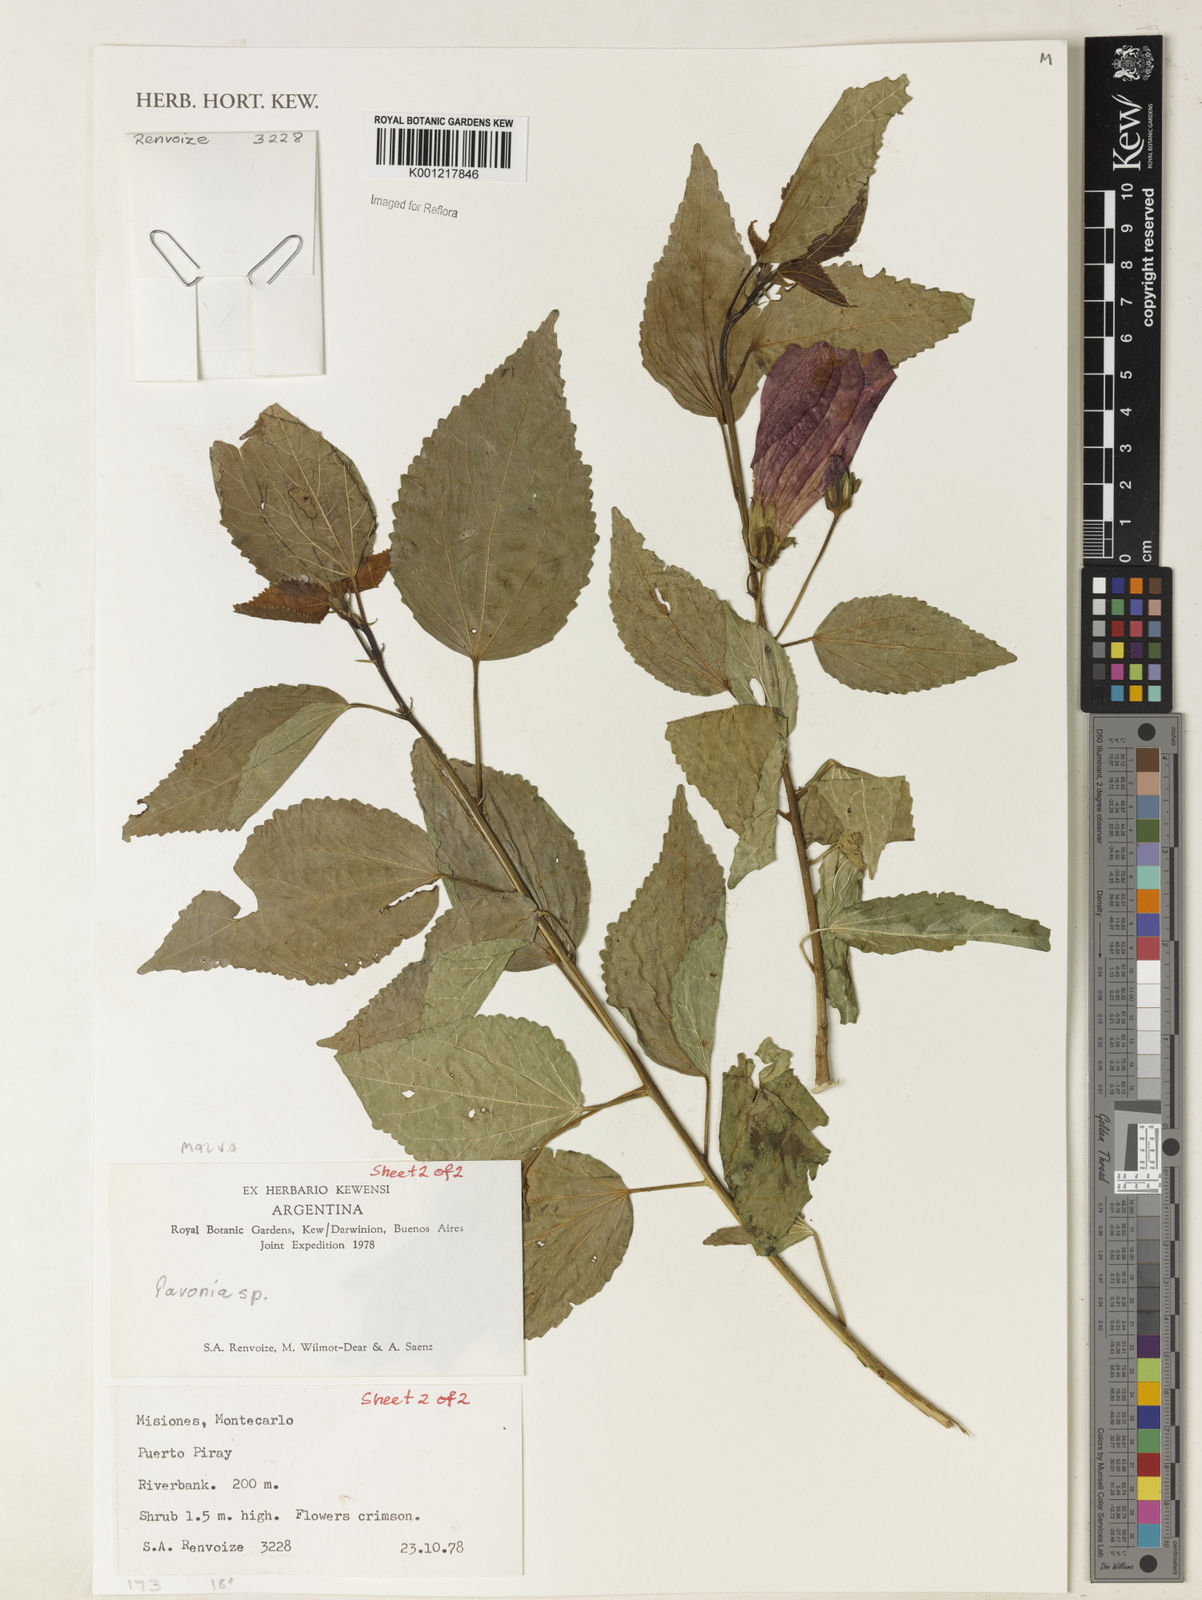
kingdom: Plantae
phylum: Tracheophyta
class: Magnoliopsida
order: Malvales
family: Malvaceae
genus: Pavonia
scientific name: Pavonia
